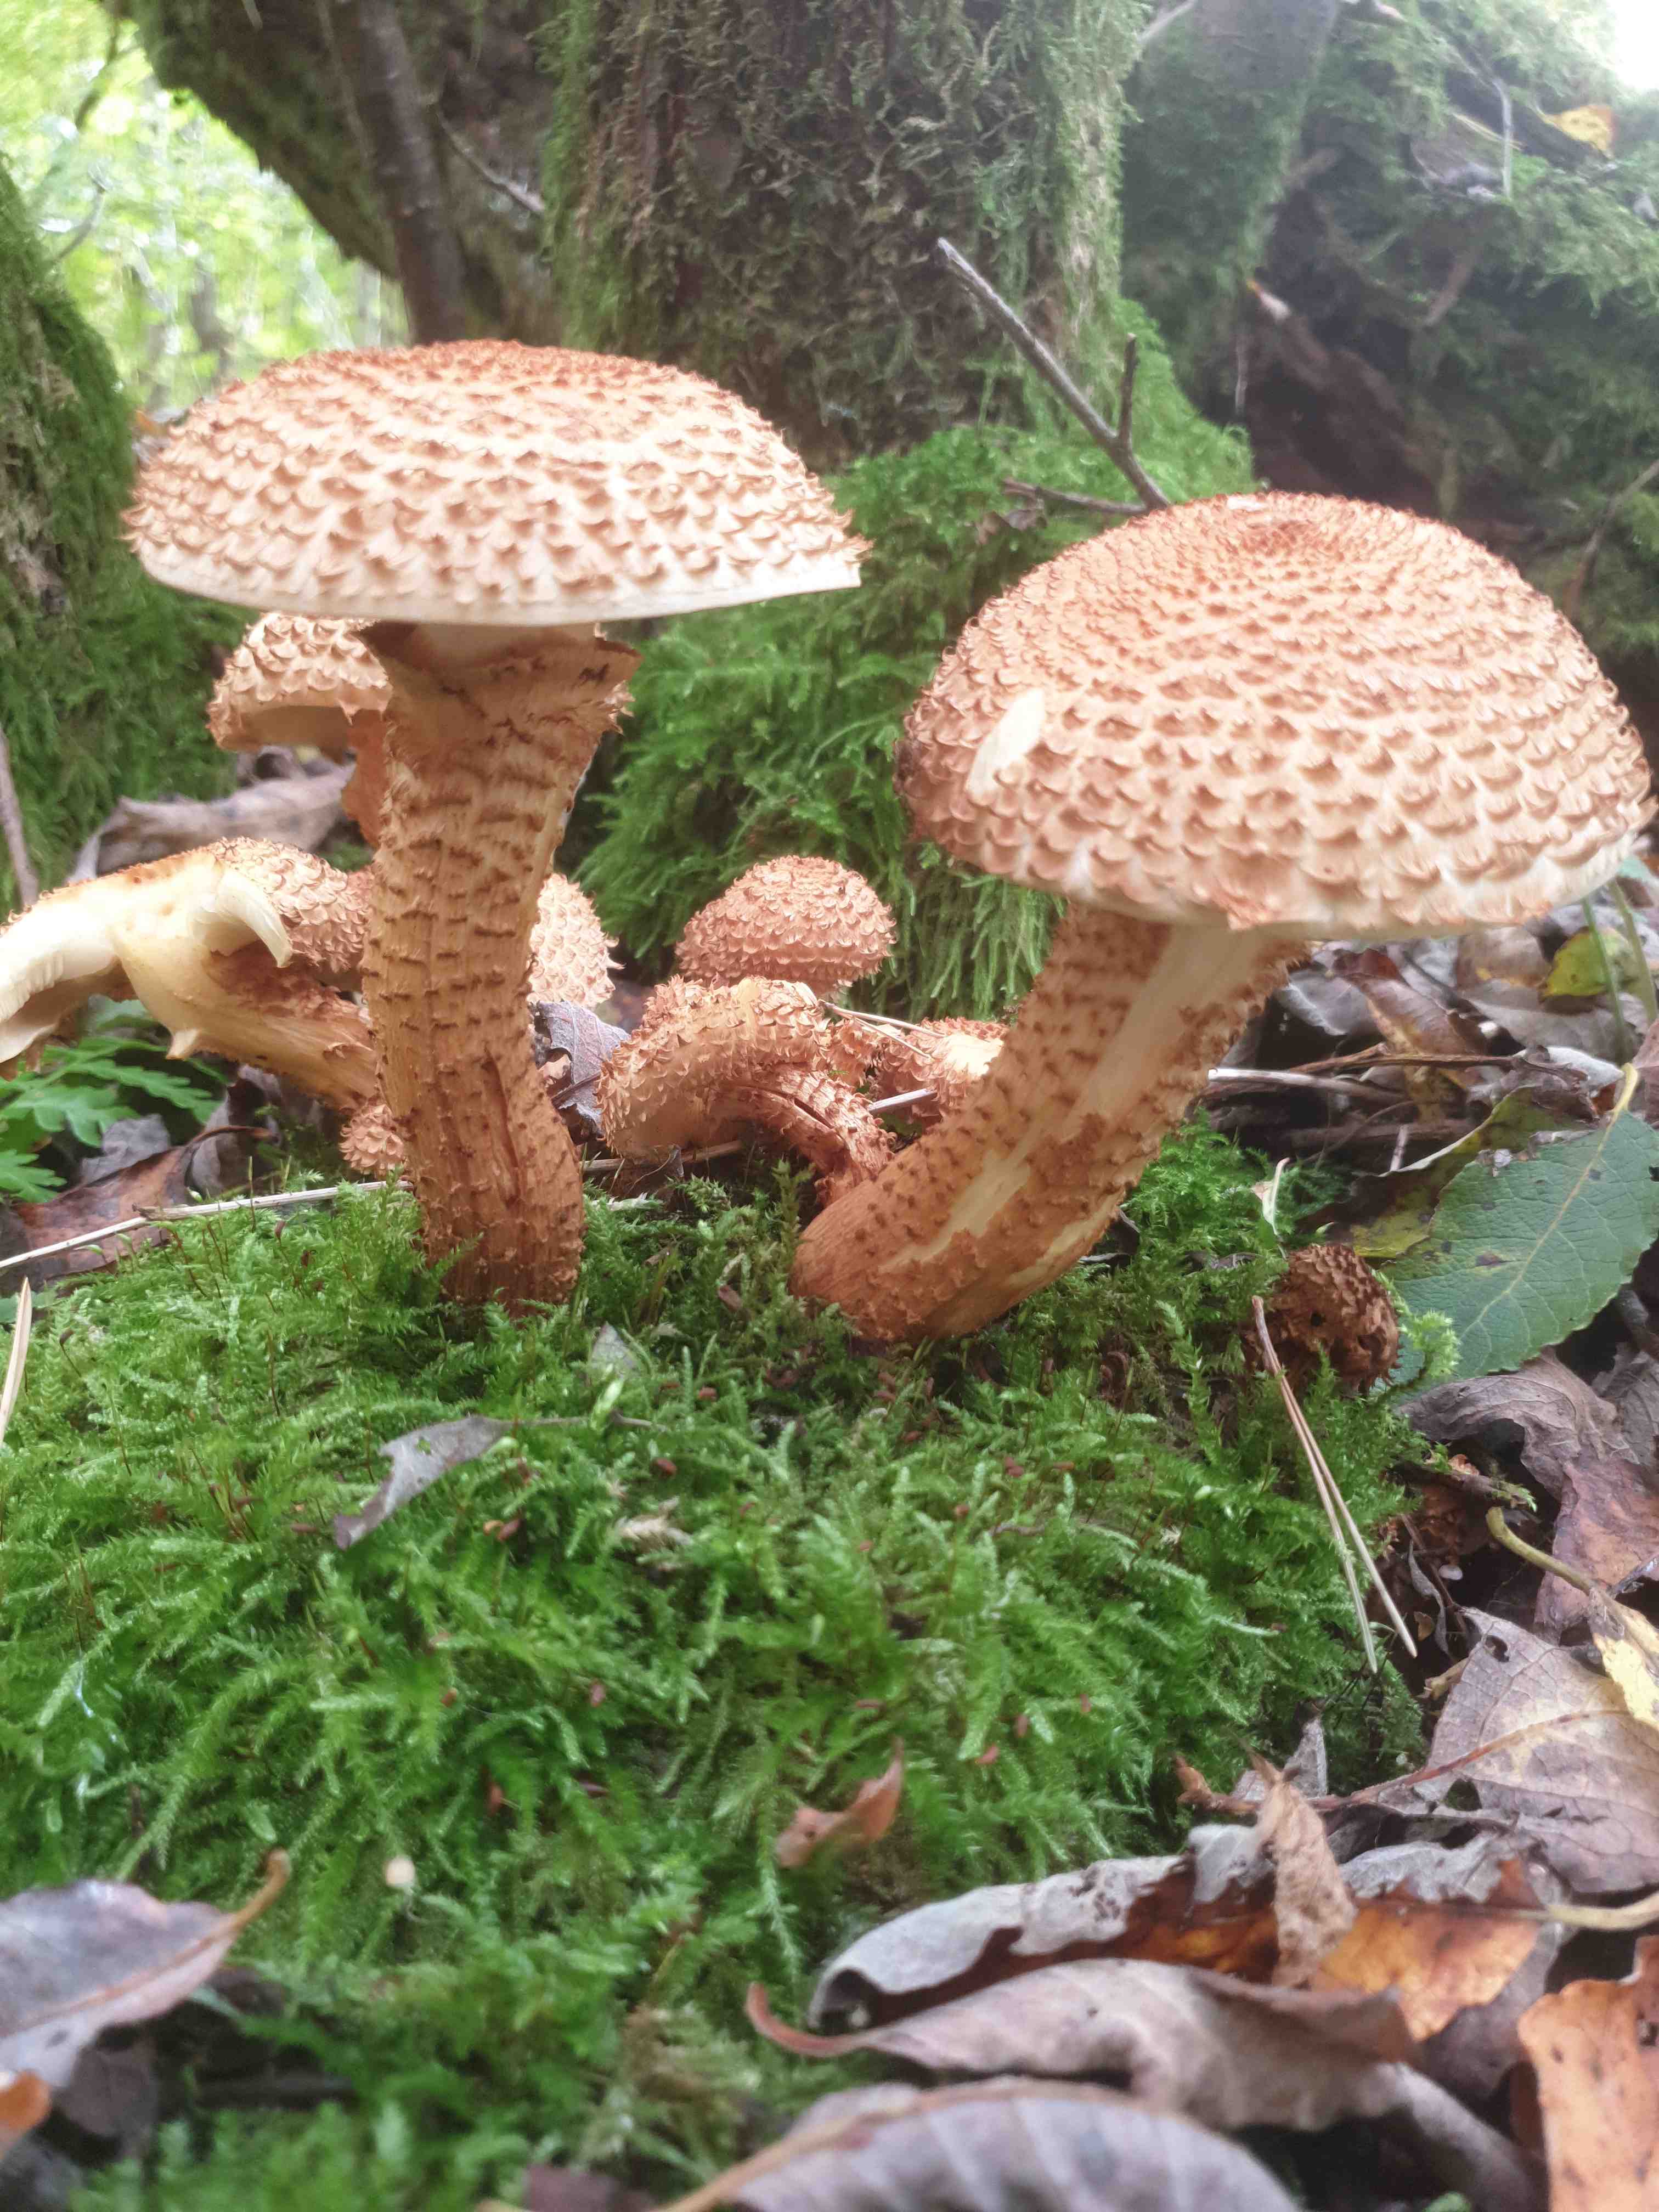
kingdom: Fungi
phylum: Basidiomycota
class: Agaricomycetes
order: Agaricales
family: Strophariaceae
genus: Pholiota
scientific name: Pholiota squarrosa
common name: krumskællet skælhat
